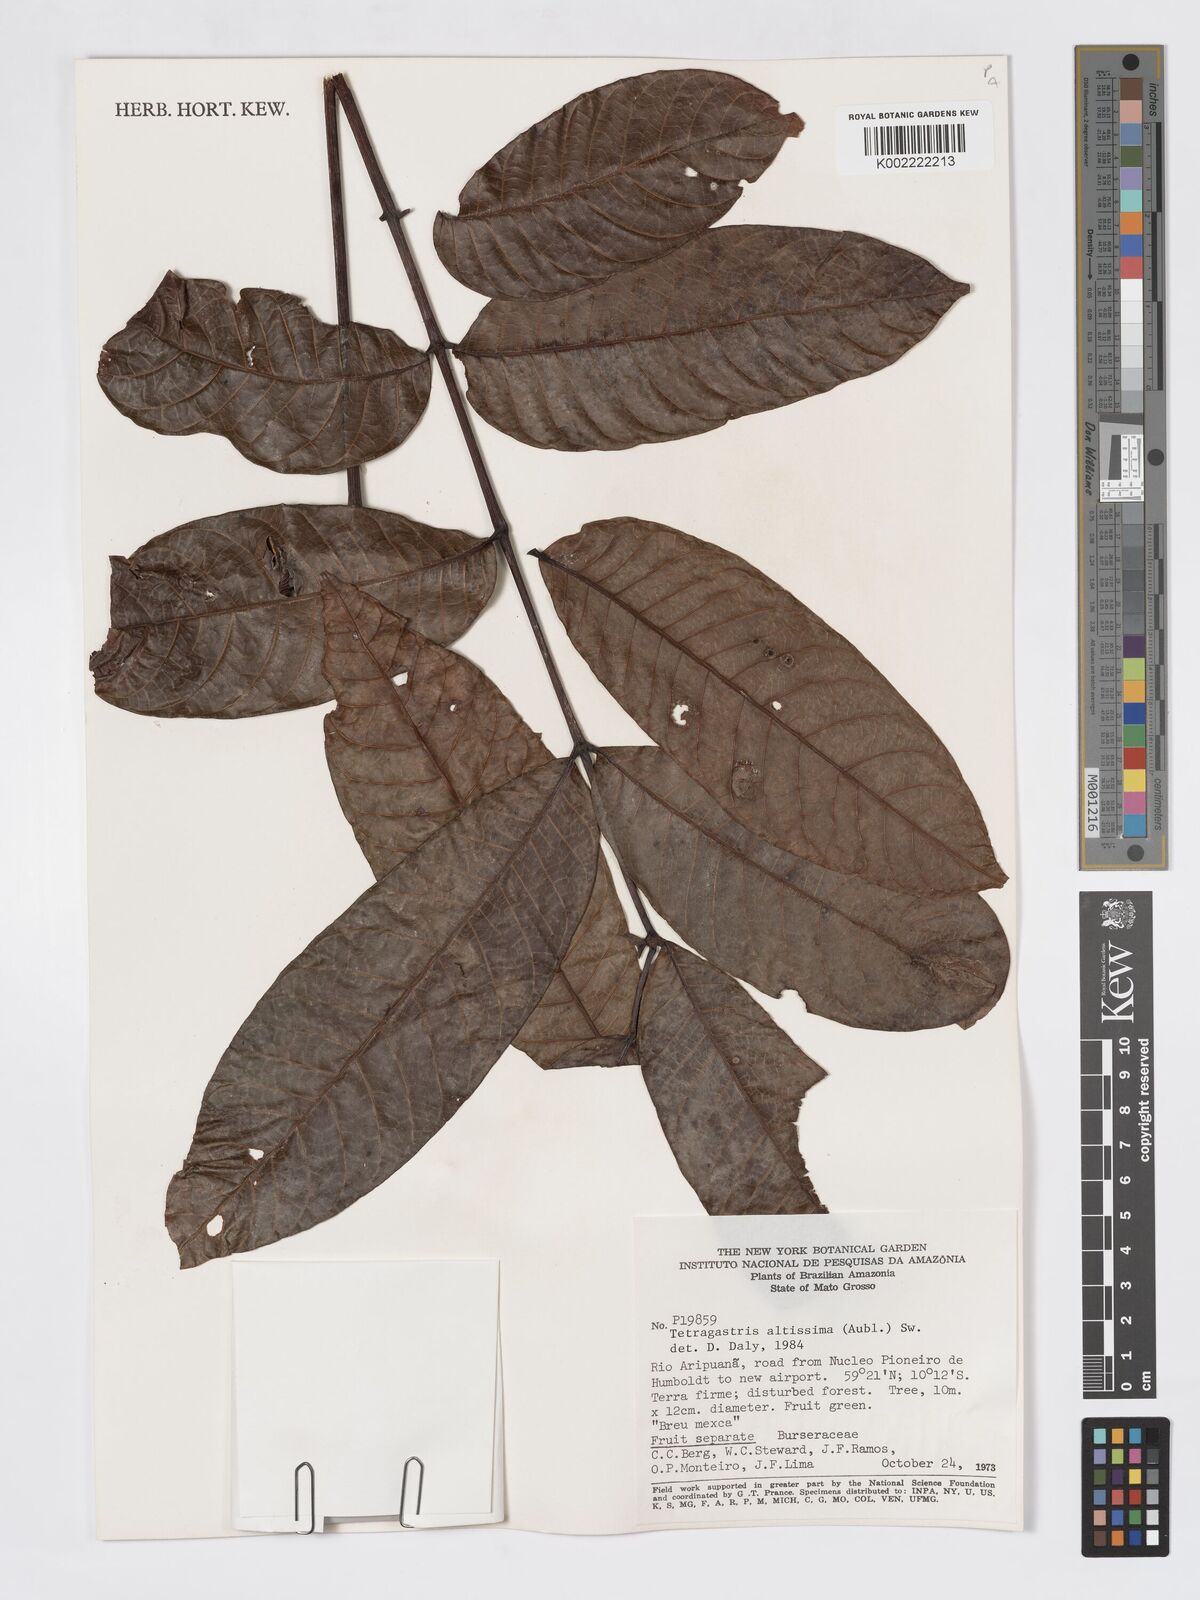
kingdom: Plantae
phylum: Tracheophyta
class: Magnoliopsida
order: Sapindales
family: Burseraceae
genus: Tetragastris
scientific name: Tetragastris altissima
